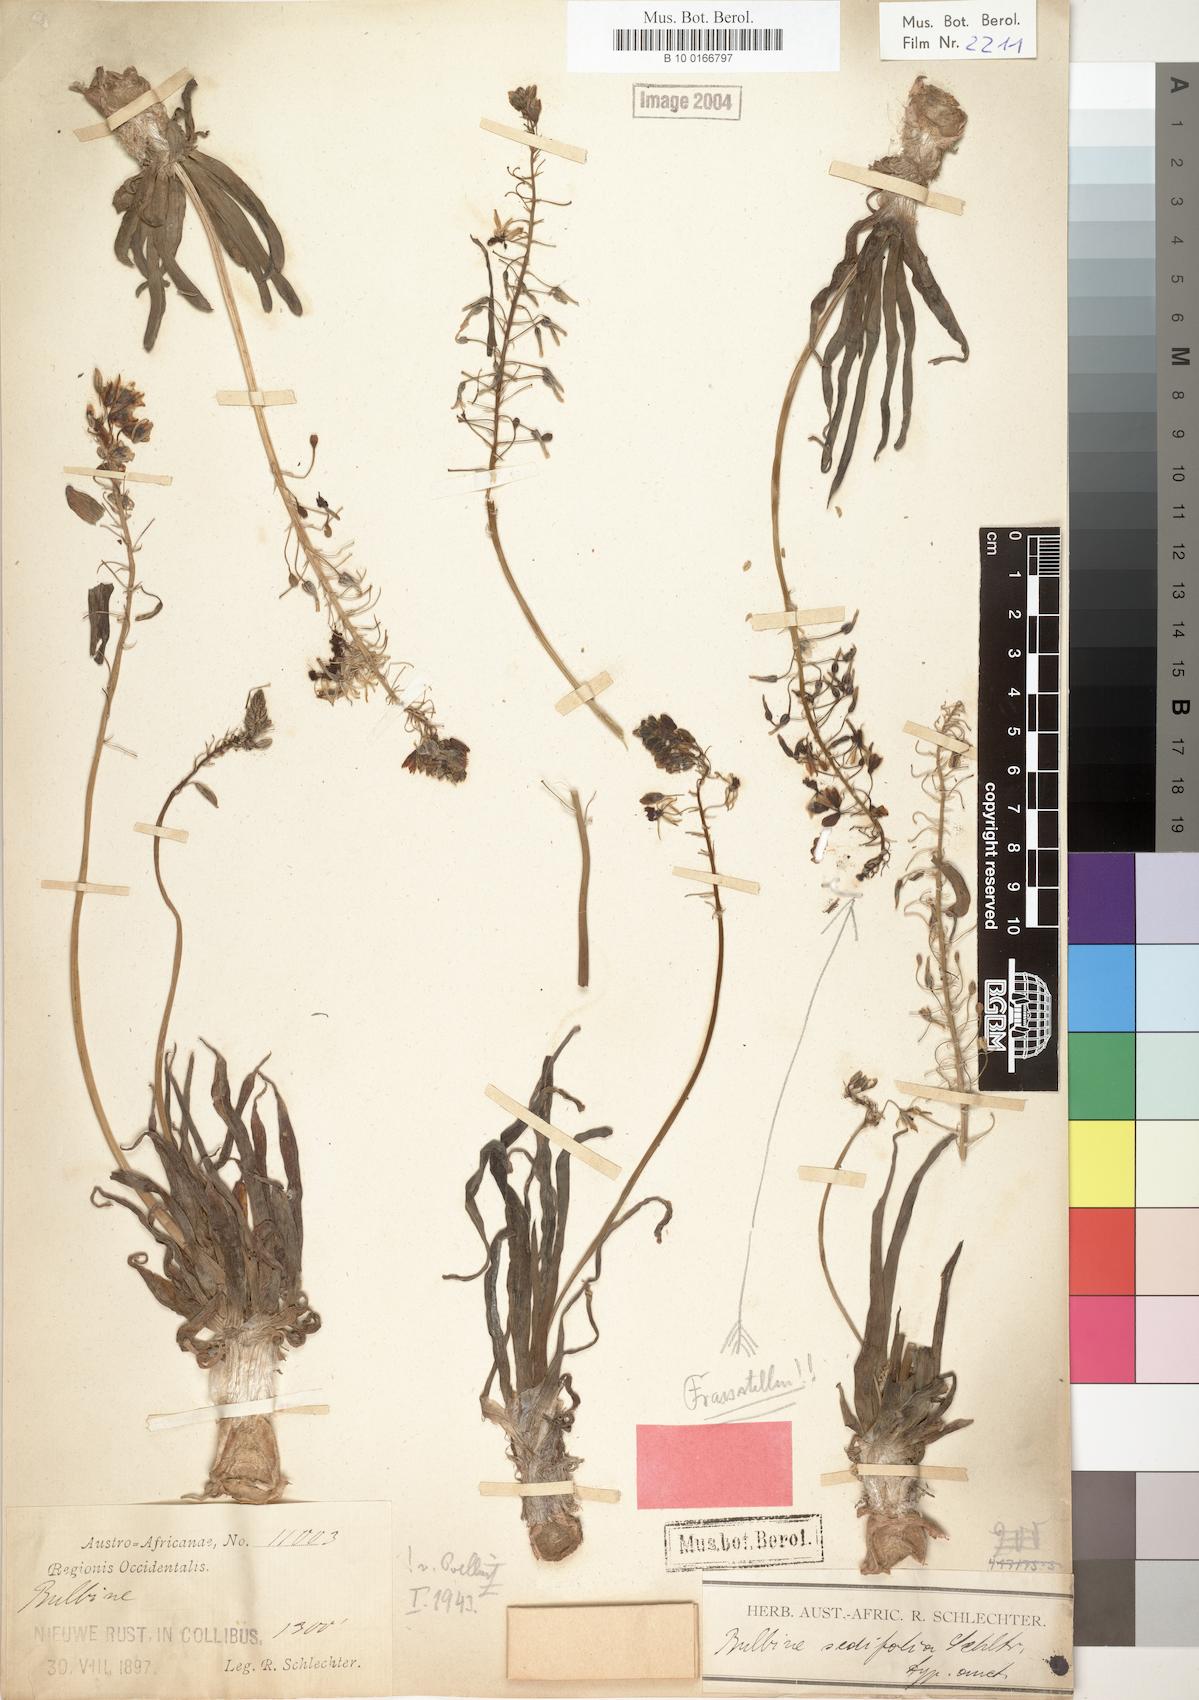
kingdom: Plantae
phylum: Tracheophyta
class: Liliopsida
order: Asparagales
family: Asphodelaceae
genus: Bulbine
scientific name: Bulbine sedifolia
